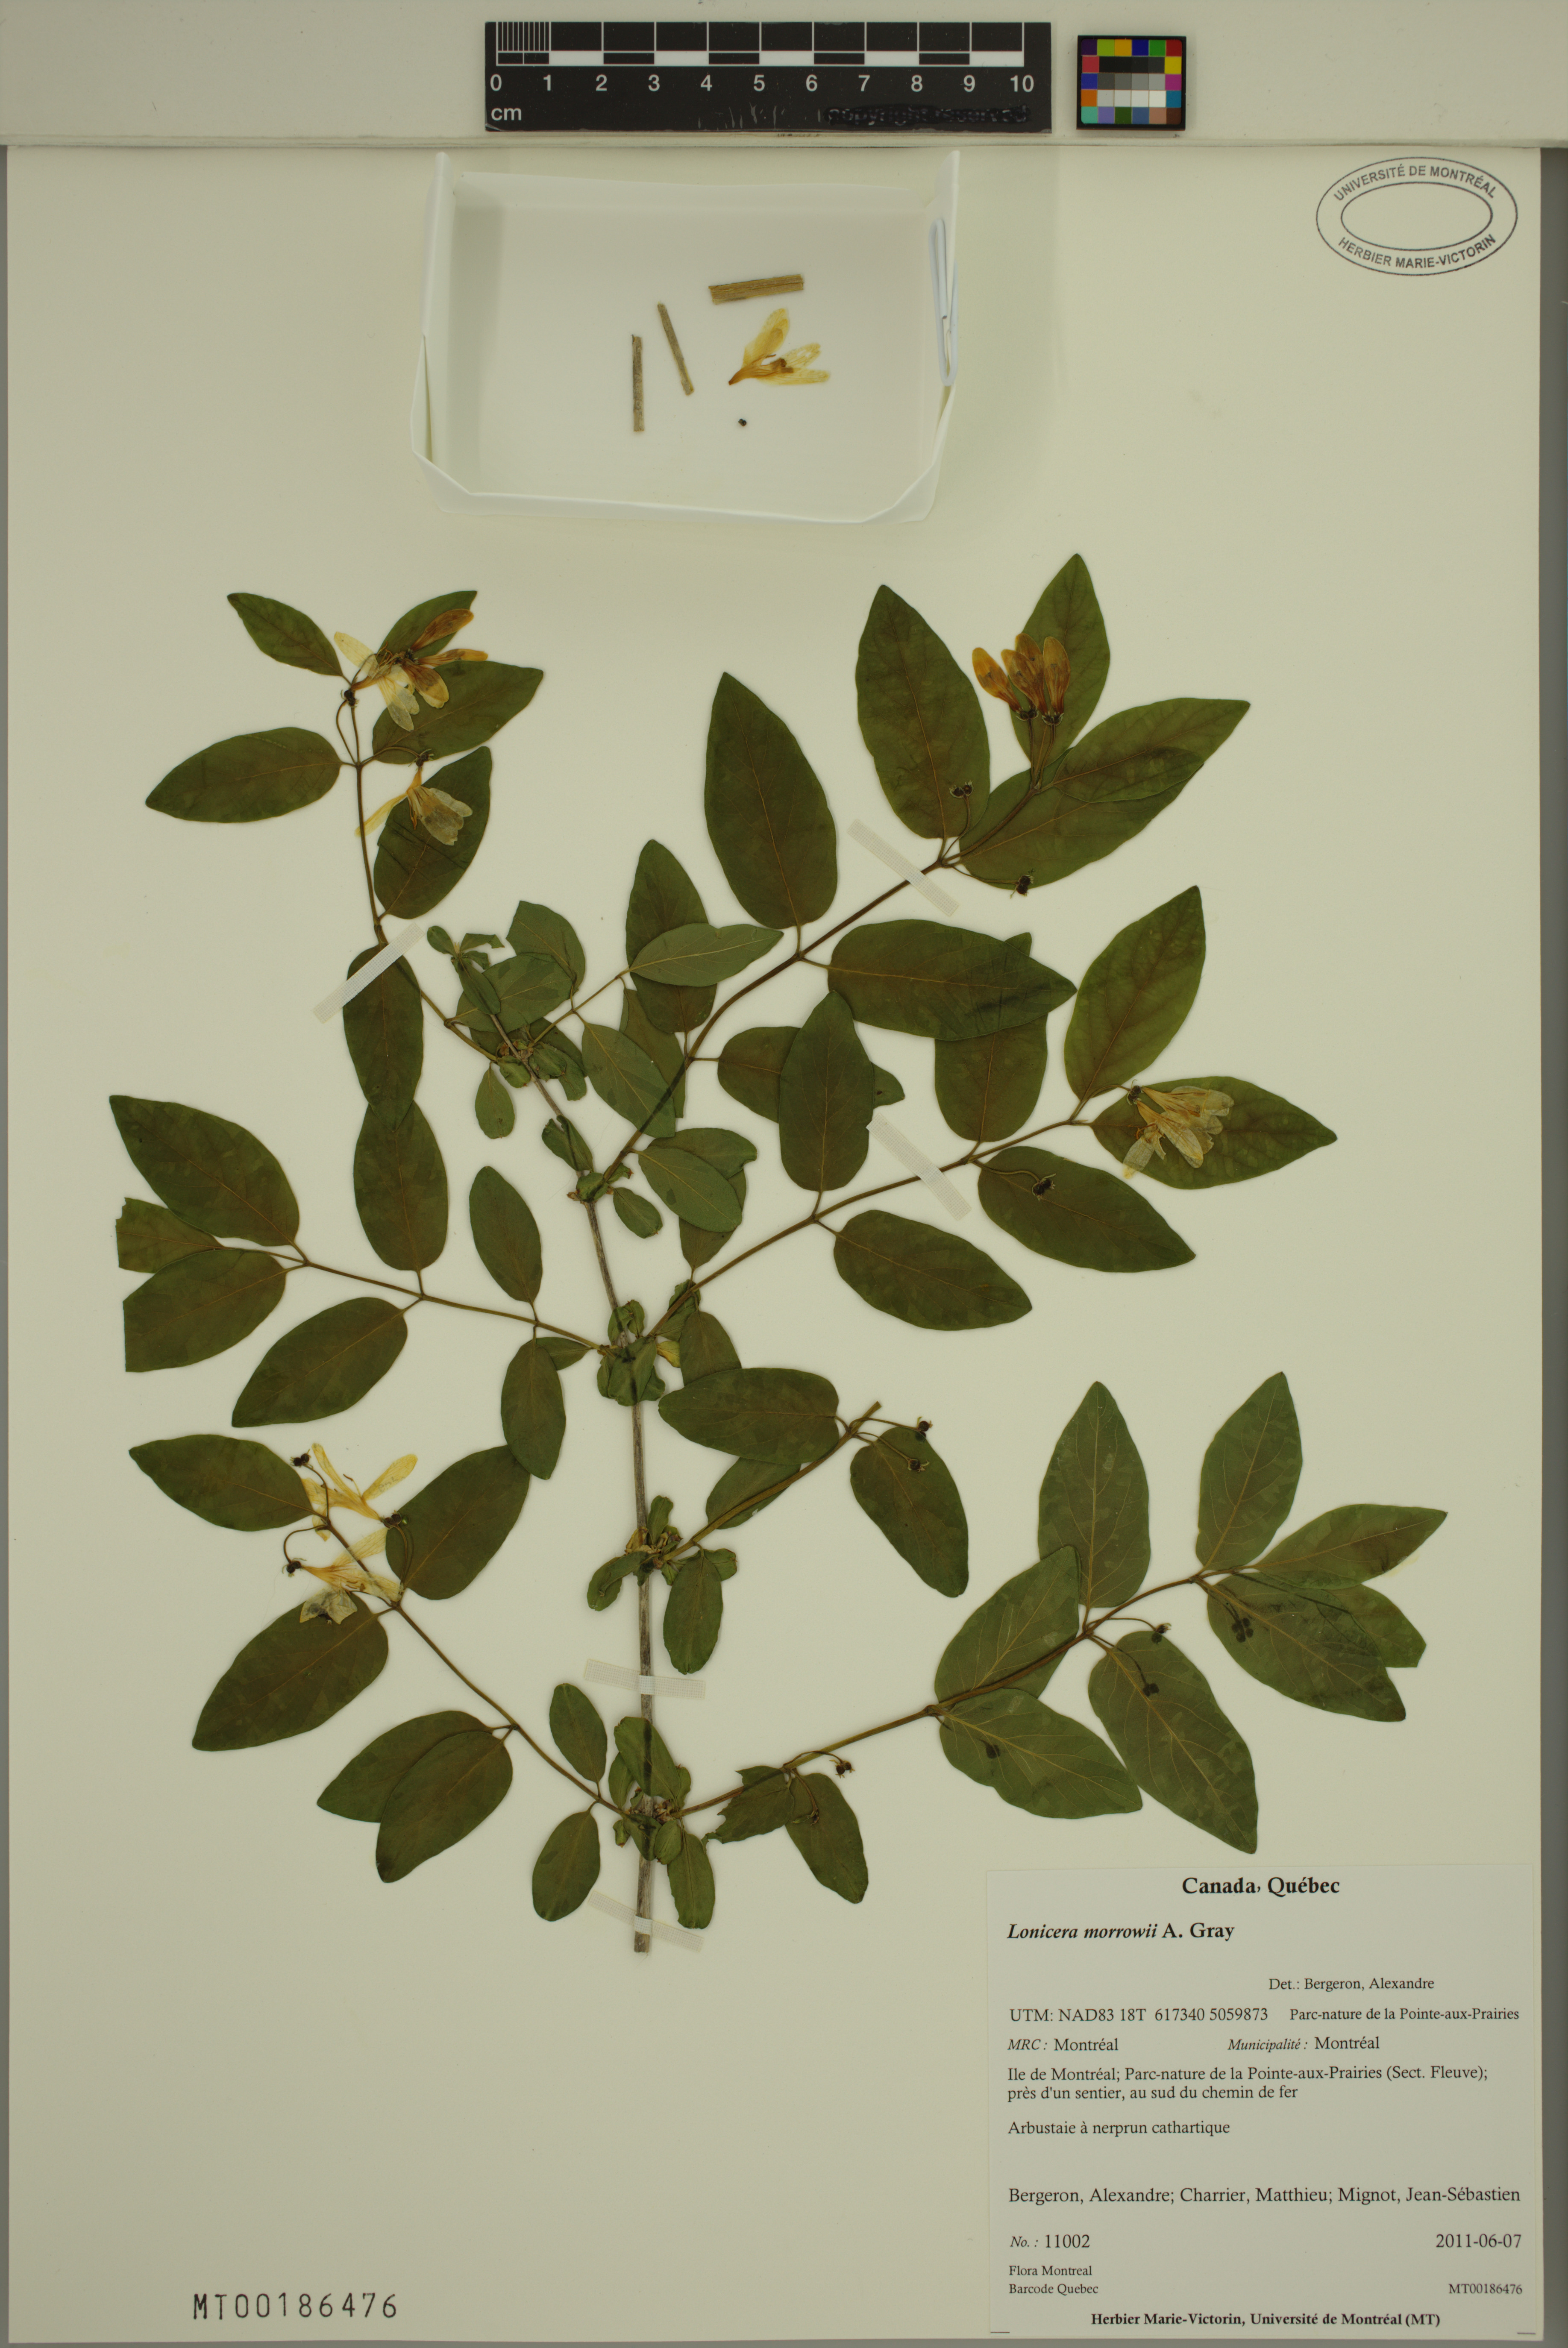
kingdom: Plantae
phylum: Tracheophyta
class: Magnoliopsida
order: Dipsacales
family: Caprifoliaceae
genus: Lonicera
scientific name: Lonicera morrowii
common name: Morrow's honeysuckle
